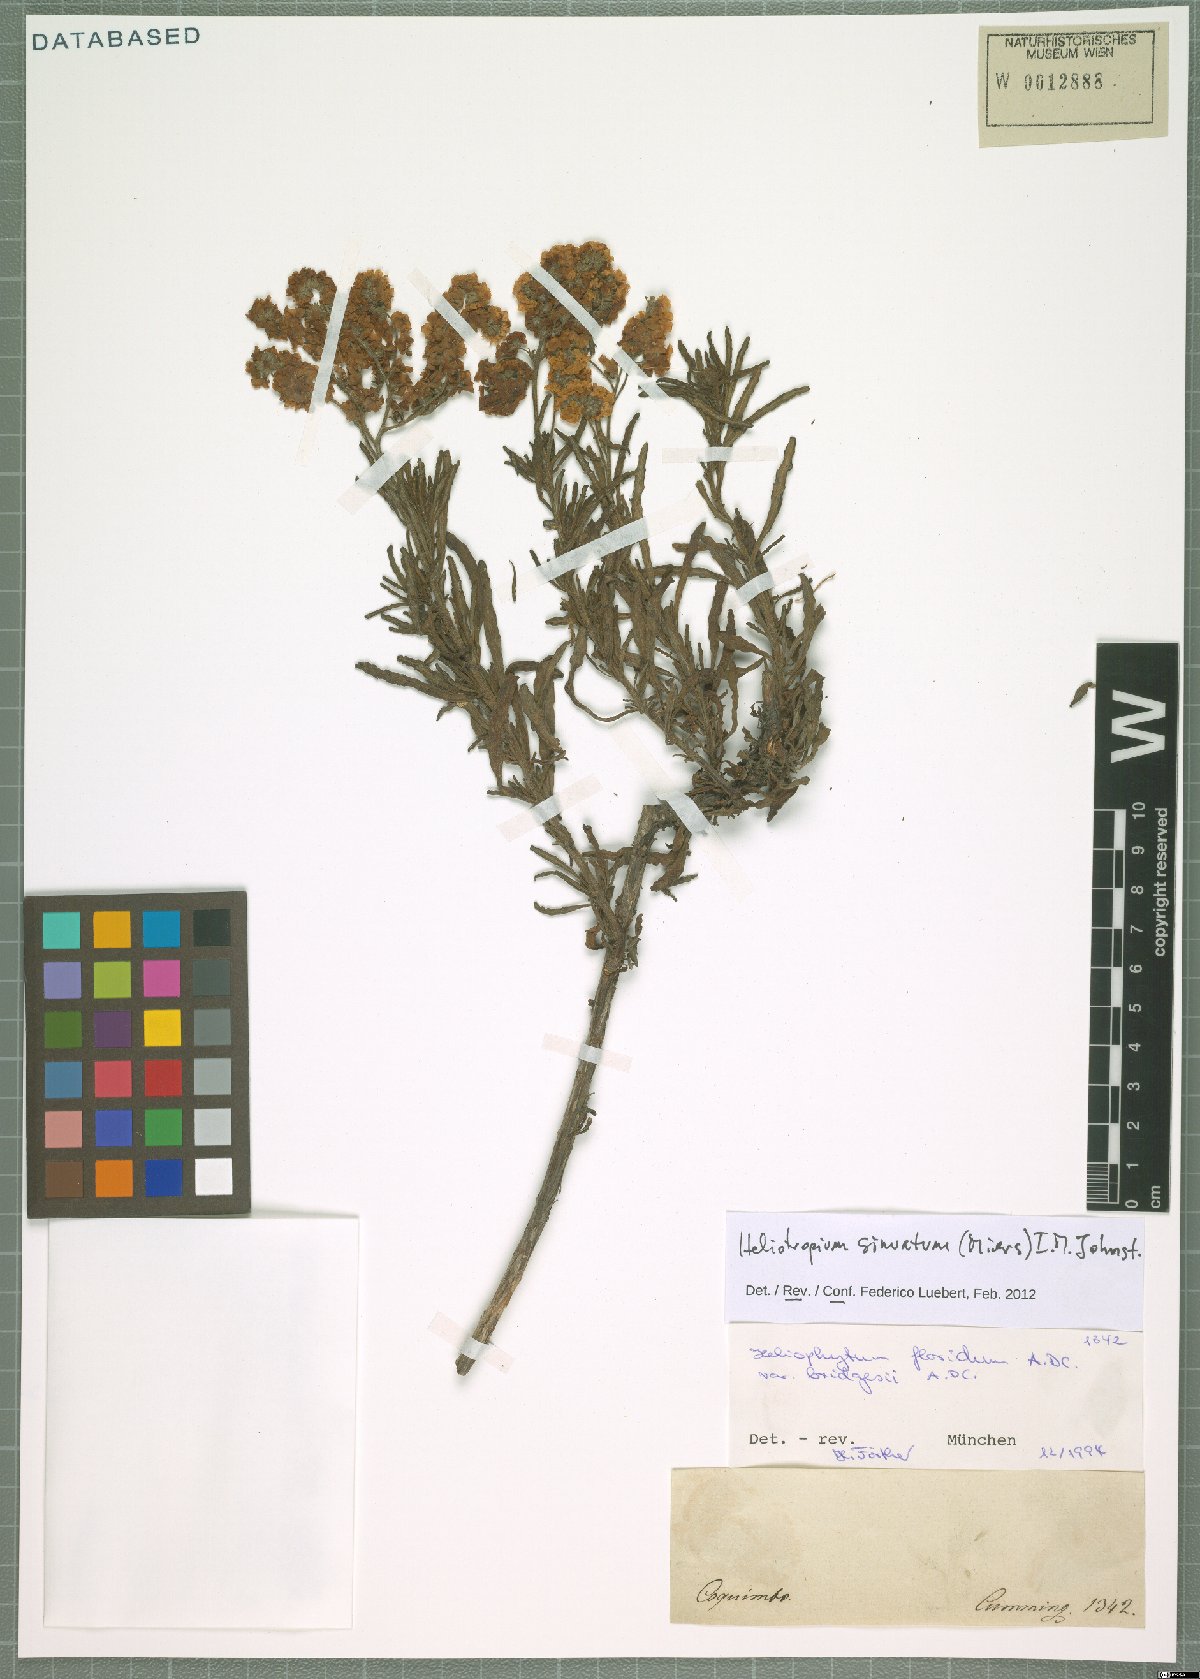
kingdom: Plantae
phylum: Tracheophyta
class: Magnoliopsida
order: Boraginales
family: Heliotropiaceae
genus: Heliotropium
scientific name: Heliotropium sinuatum
